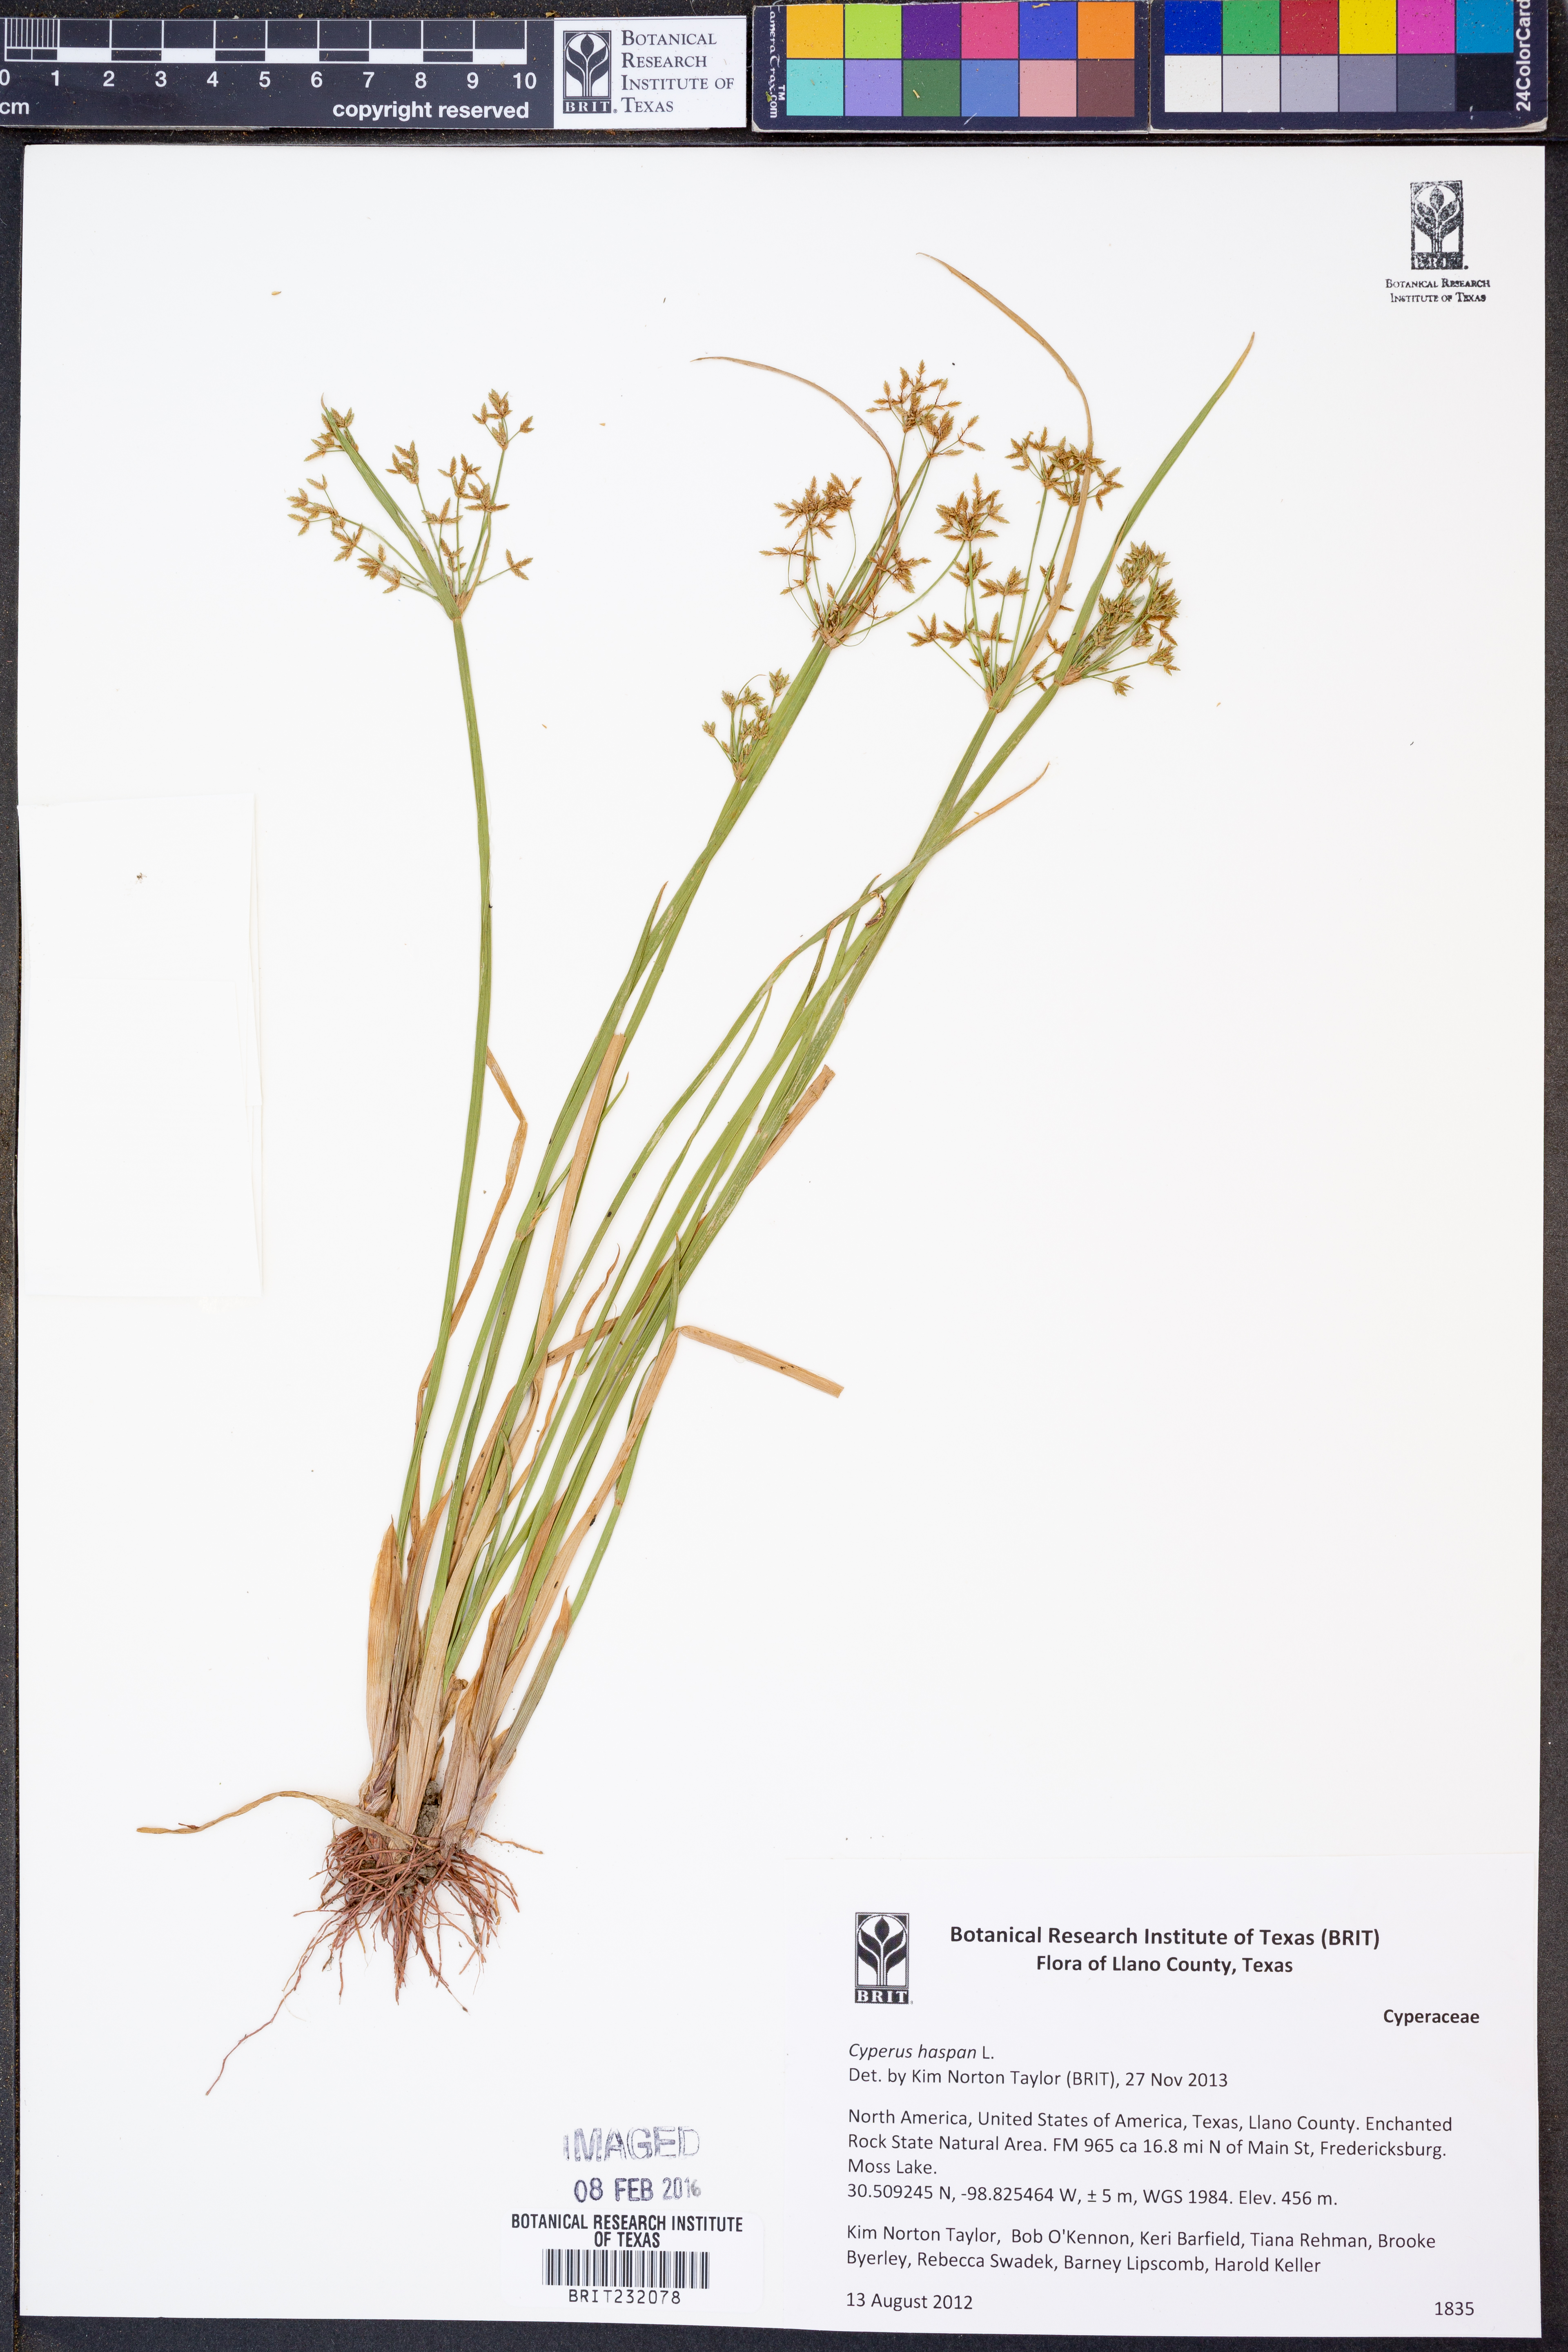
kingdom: Plantae
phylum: Tracheophyta
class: Liliopsida
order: Poales
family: Cyperaceae
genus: Cyperus
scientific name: Cyperus haspan
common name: Haspan flatsedge
